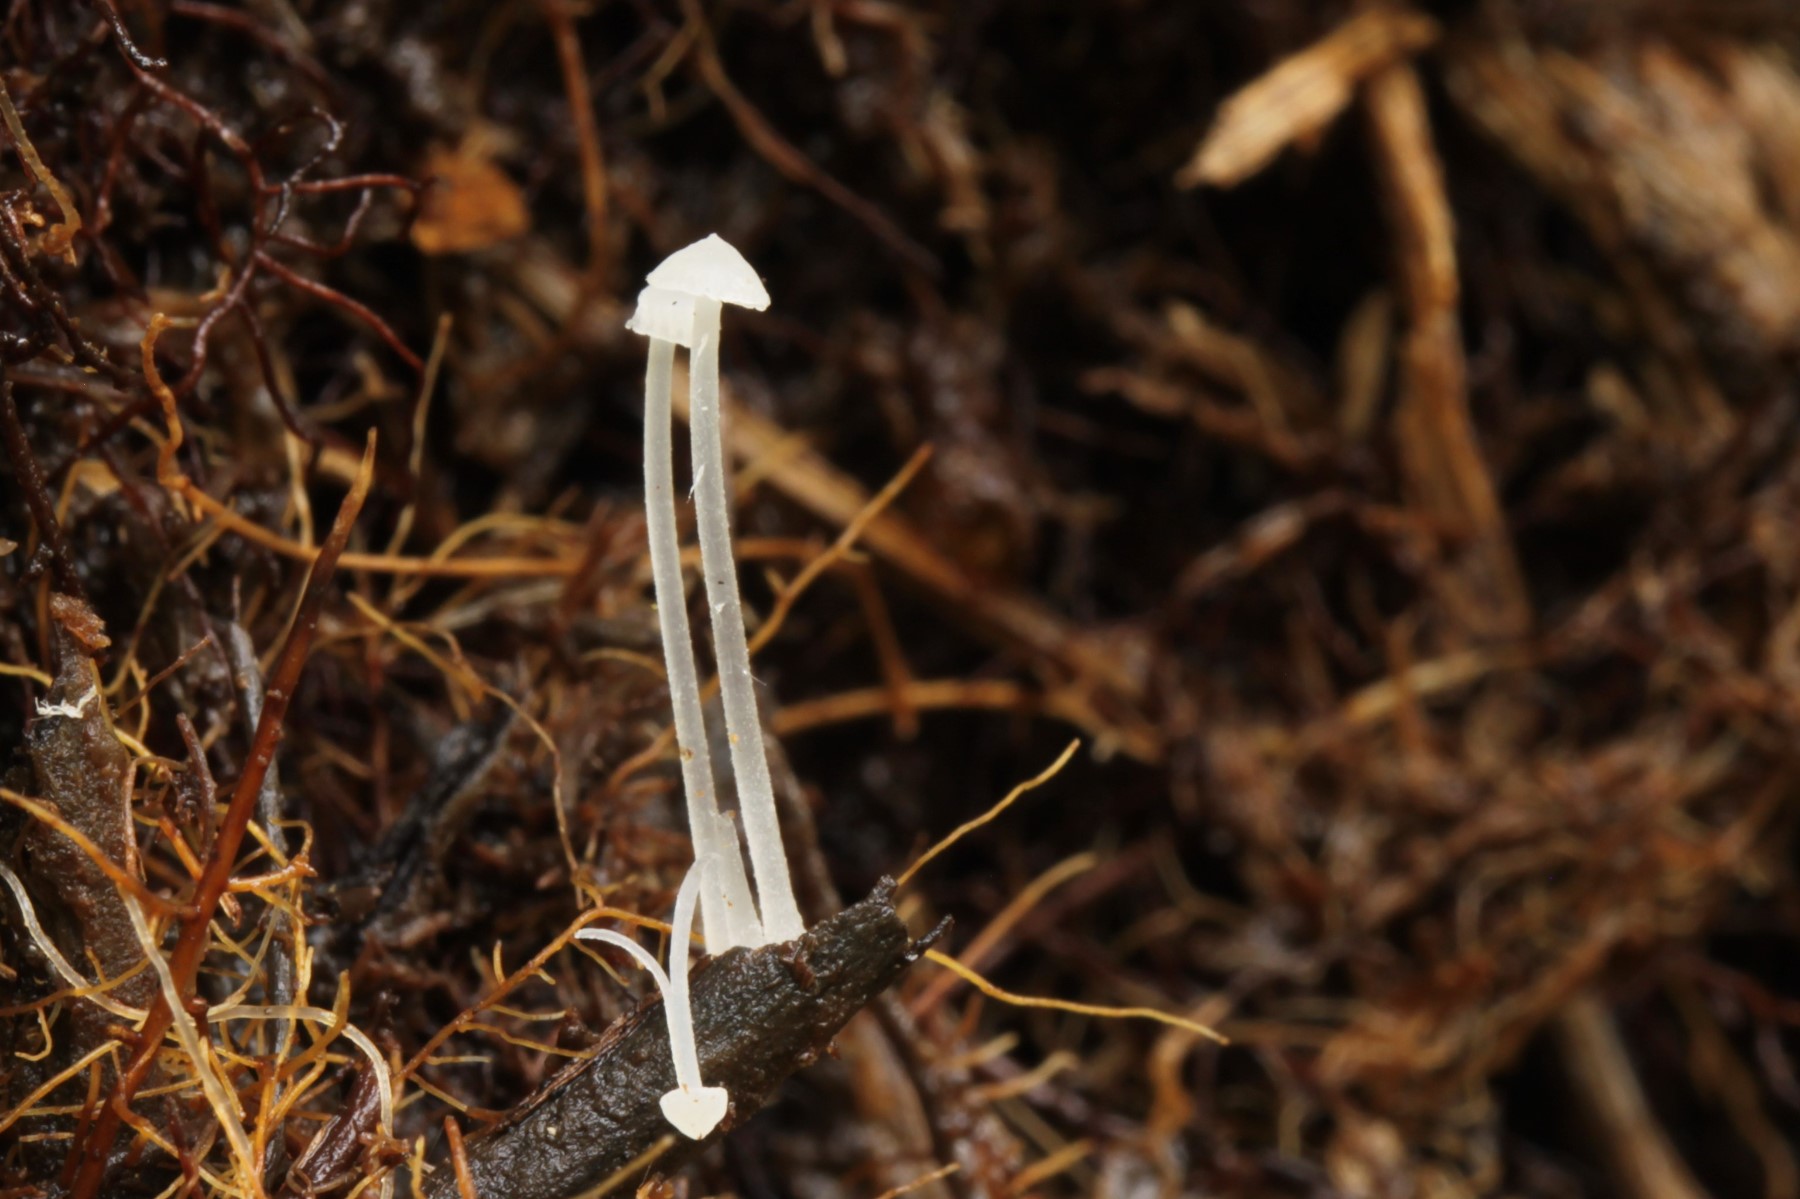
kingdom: Fungi
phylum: Basidiomycota
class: Agaricomycetes
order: Agaricales
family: Mycenaceae
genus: Hemimycena
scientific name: Hemimycena
